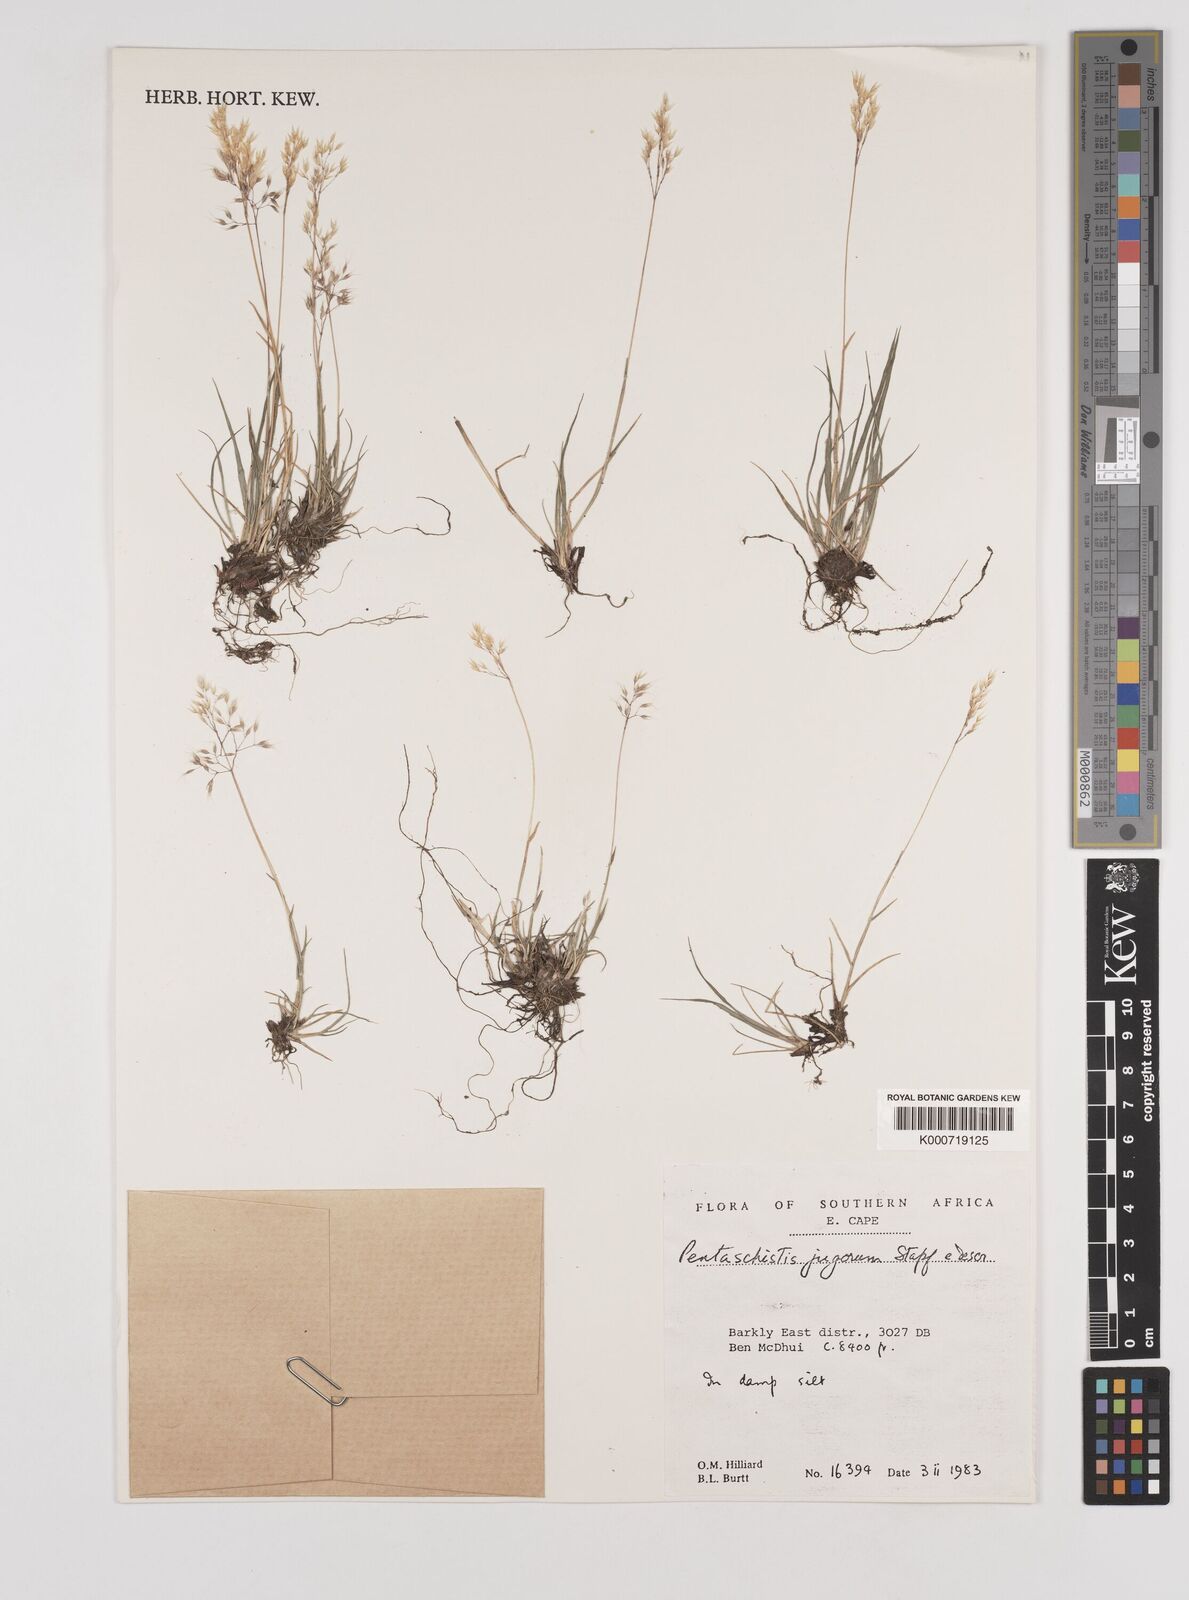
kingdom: Plantae
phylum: Tracheophyta
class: Liliopsida
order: Poales
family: Poaceae
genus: Pentameris
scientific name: Pentameris airoides
